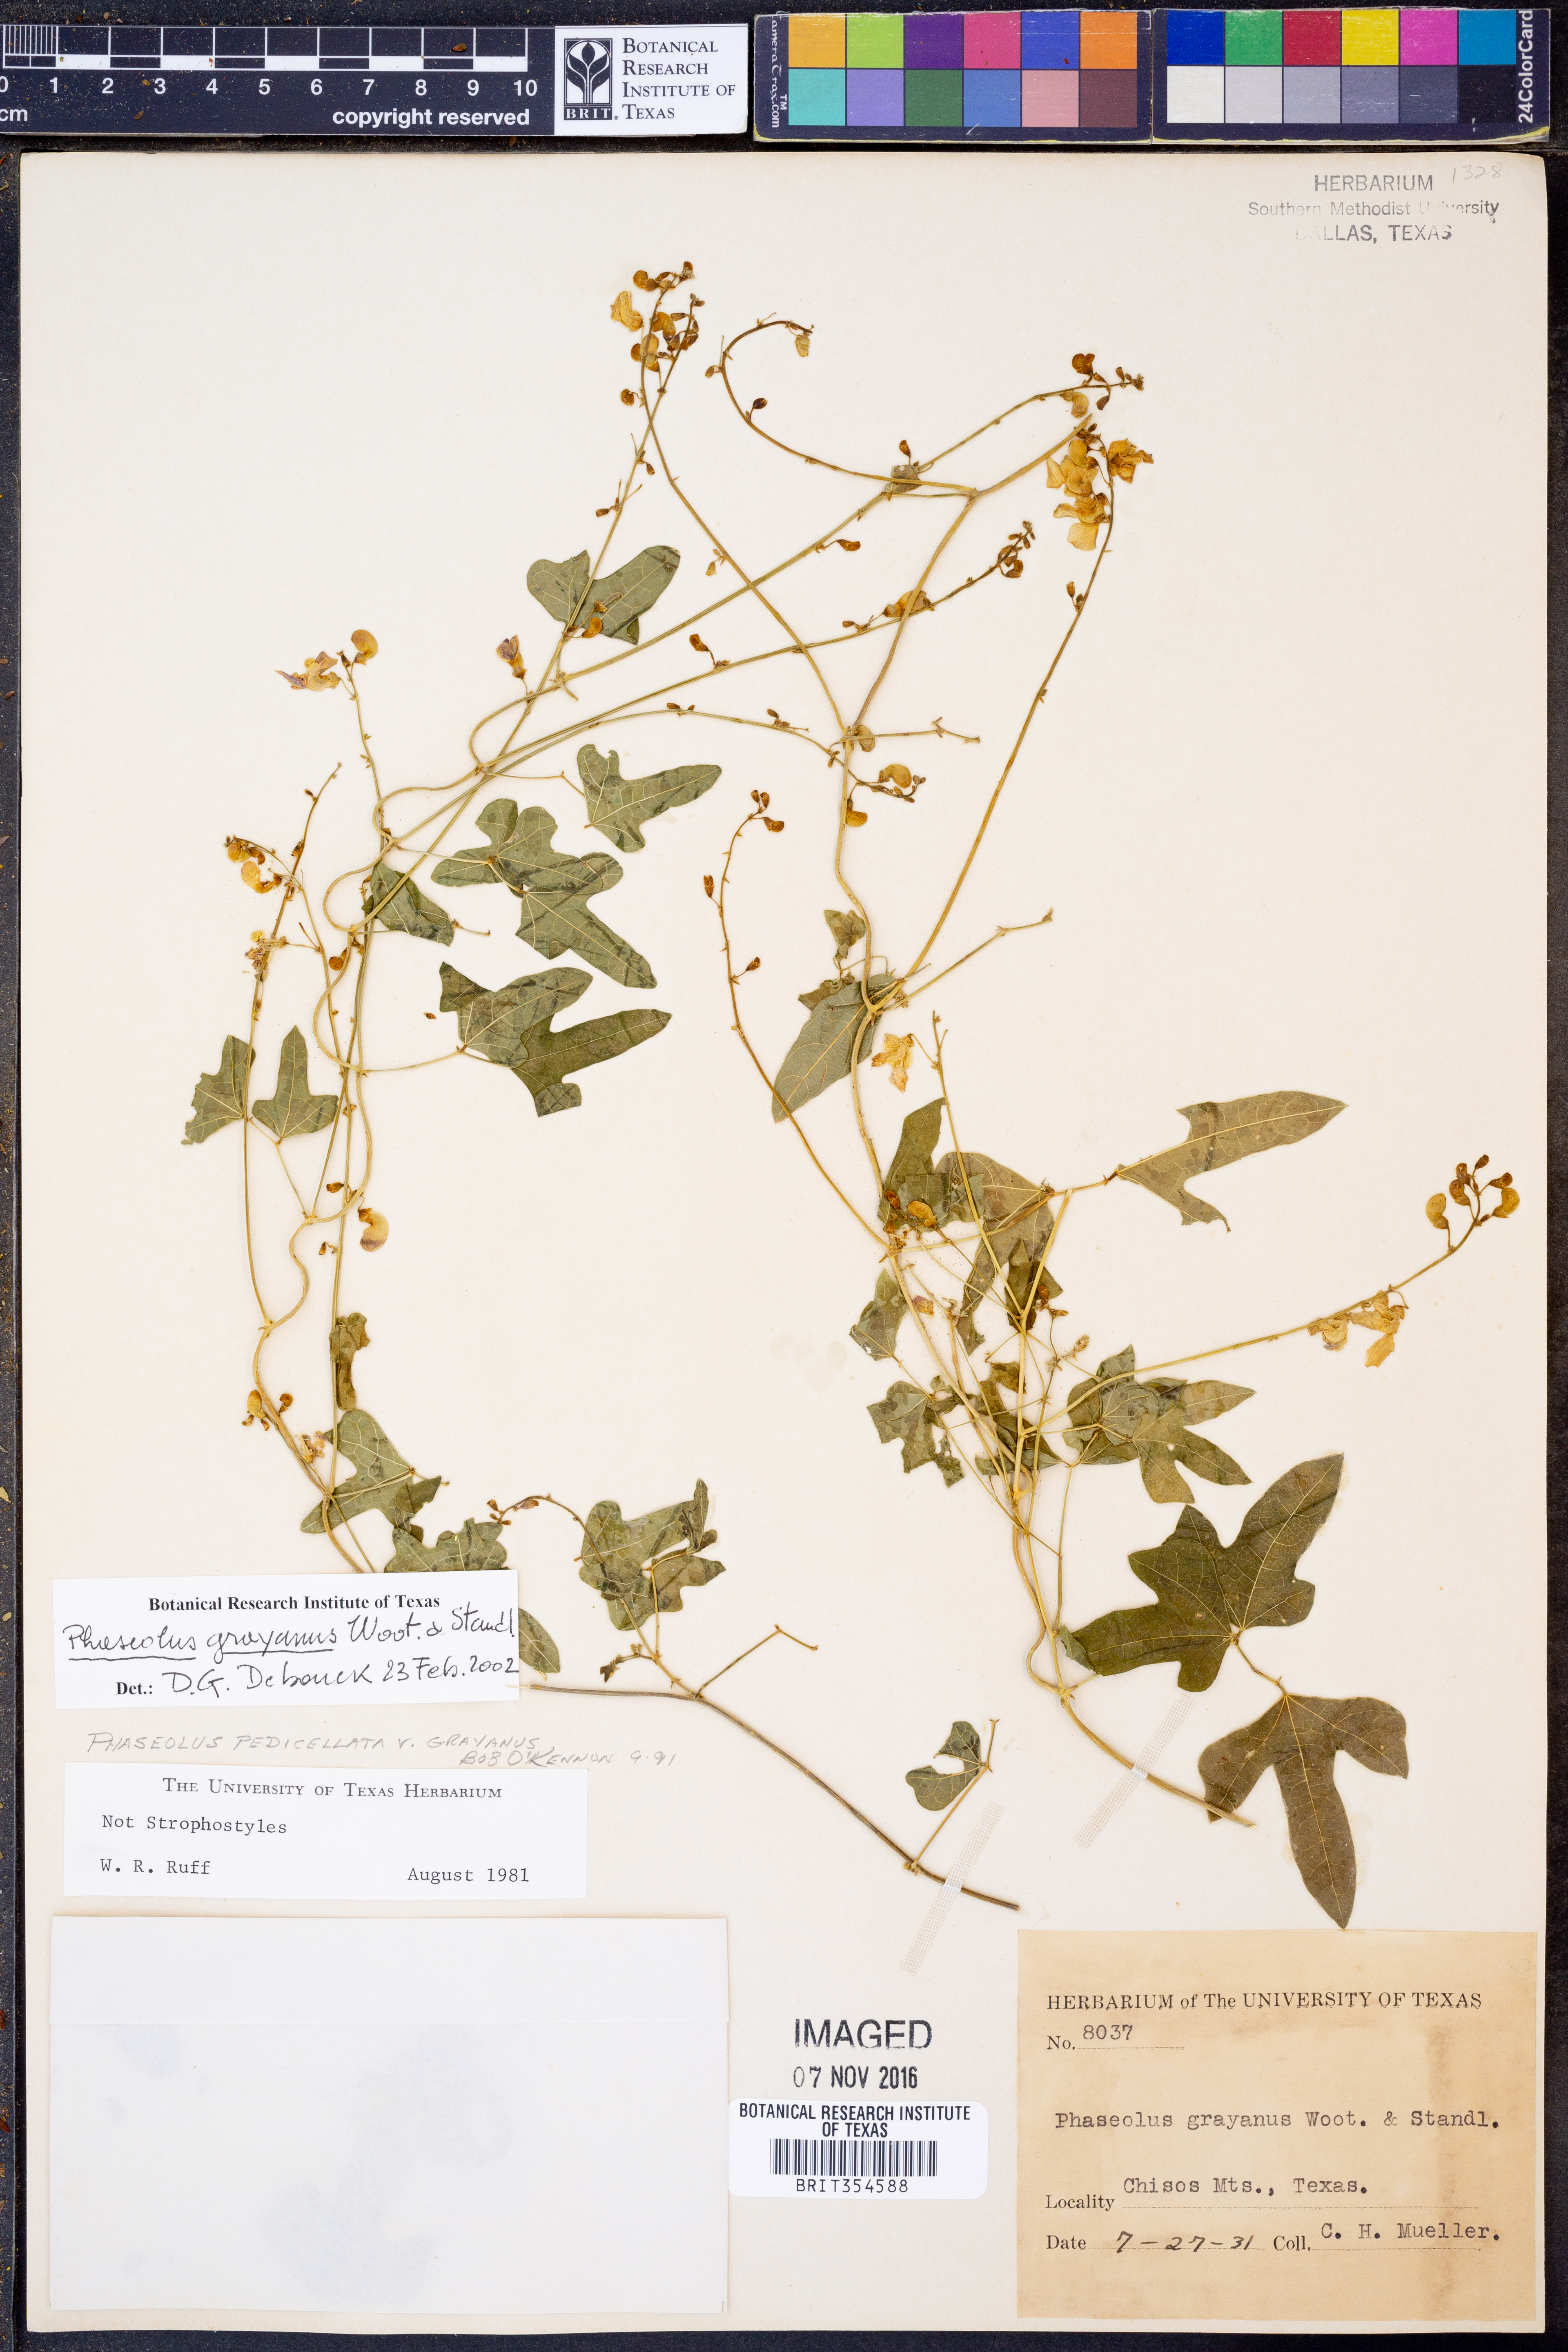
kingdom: Plantae
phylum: Tracheophyta
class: Magnoliopsida
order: Fabales
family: Fabaceae
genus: Phaseolus
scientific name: Phaseolus pedicellatus
